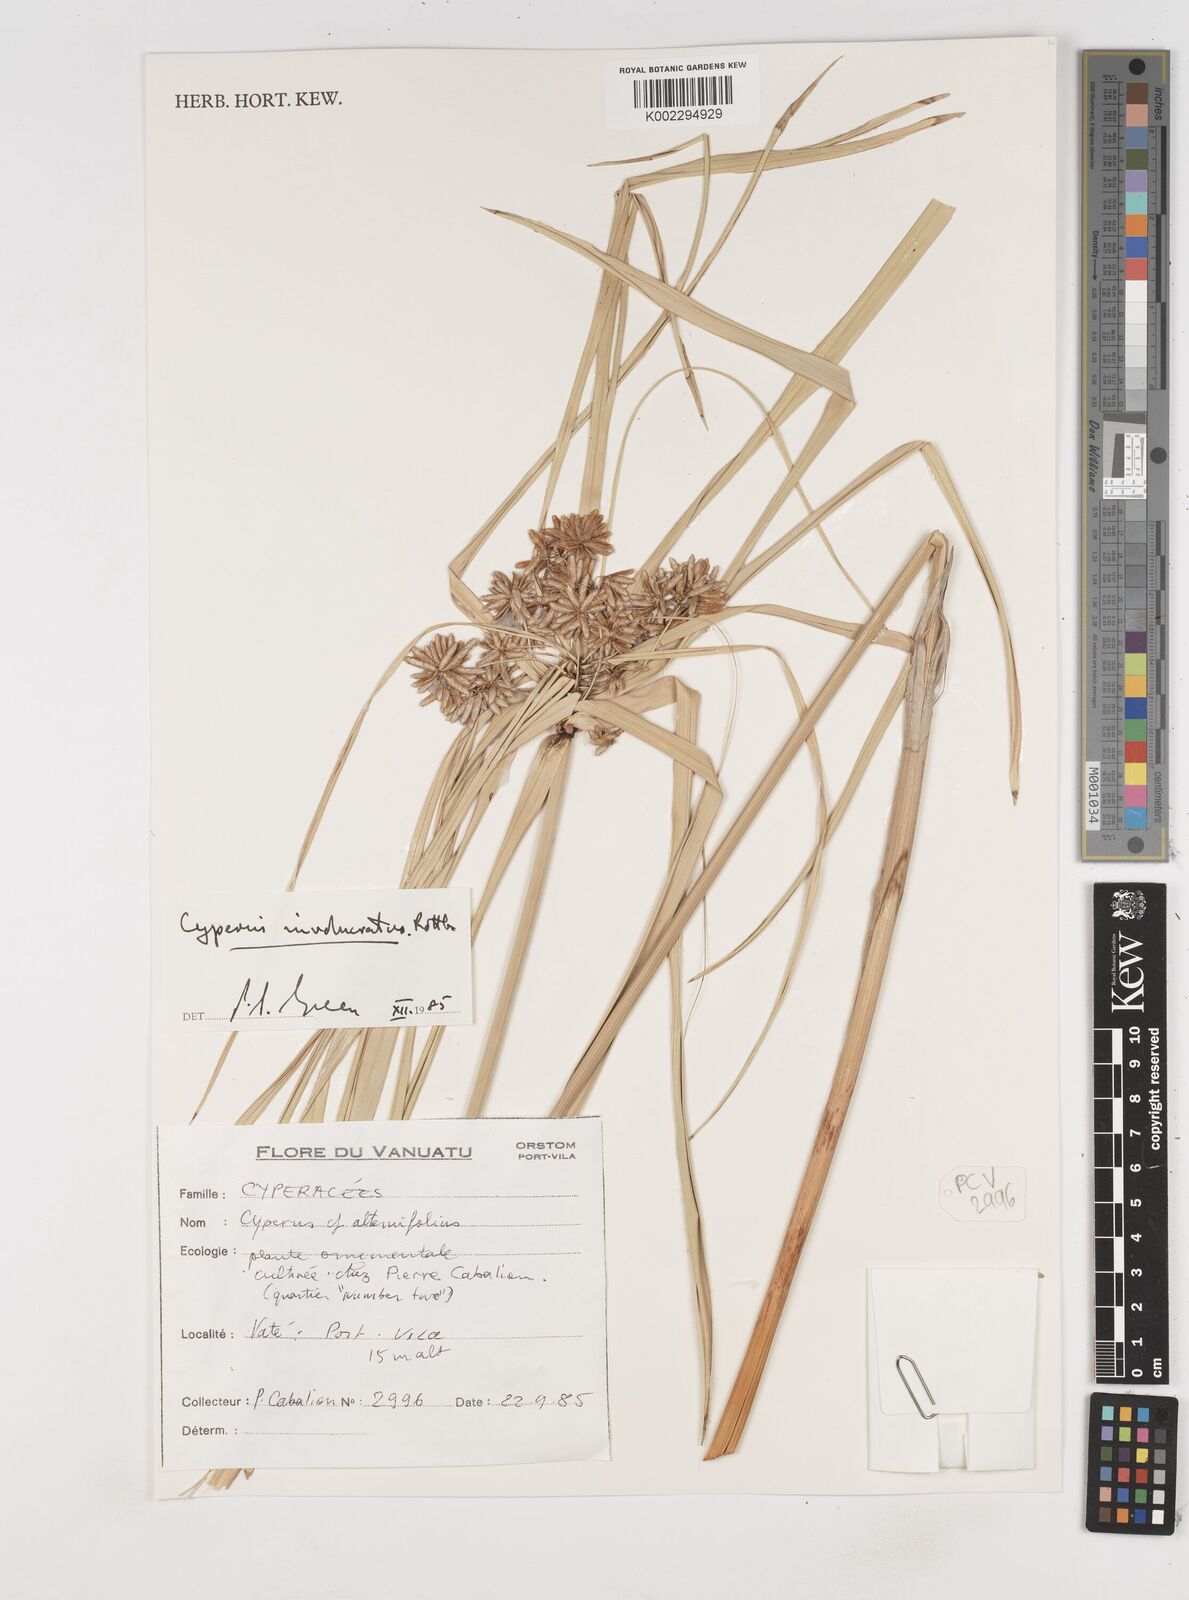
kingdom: Plantae
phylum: Tracheophyta
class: Liliopsida
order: Poales
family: Cyperaceae
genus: Cyperus
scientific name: Cyperus alternifolius
